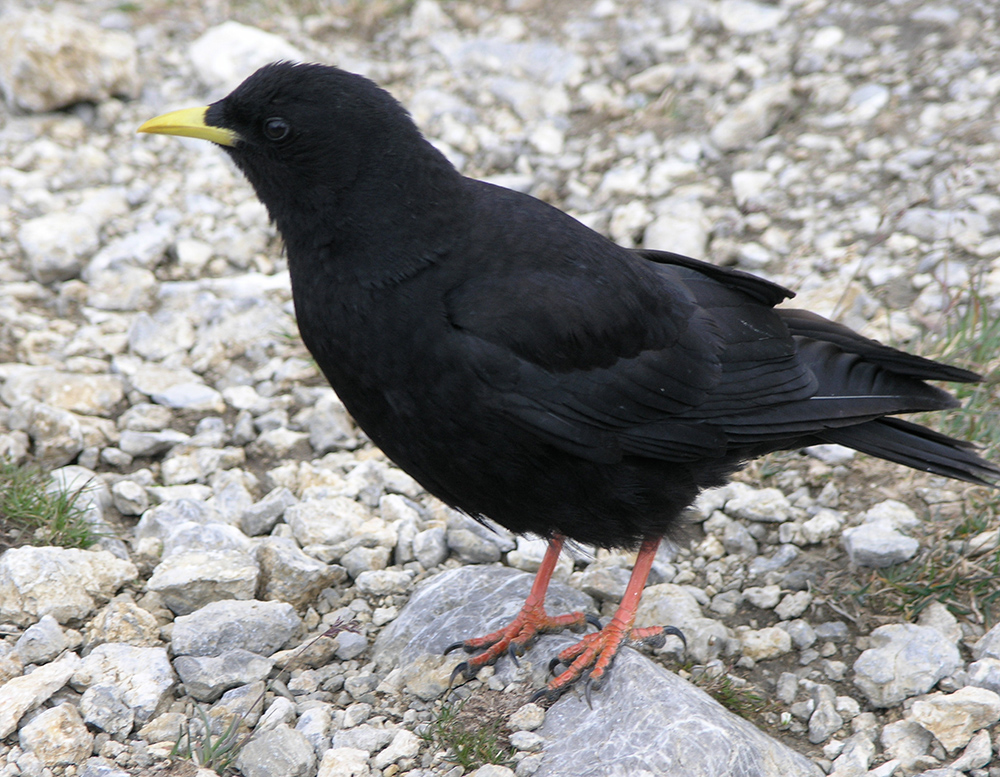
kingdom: Animalia
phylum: Chordata
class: Aves
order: Passeriformes
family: Corvidae
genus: Pyrrhocorax
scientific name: Pyrrhocorax graculus
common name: Alpine chough
